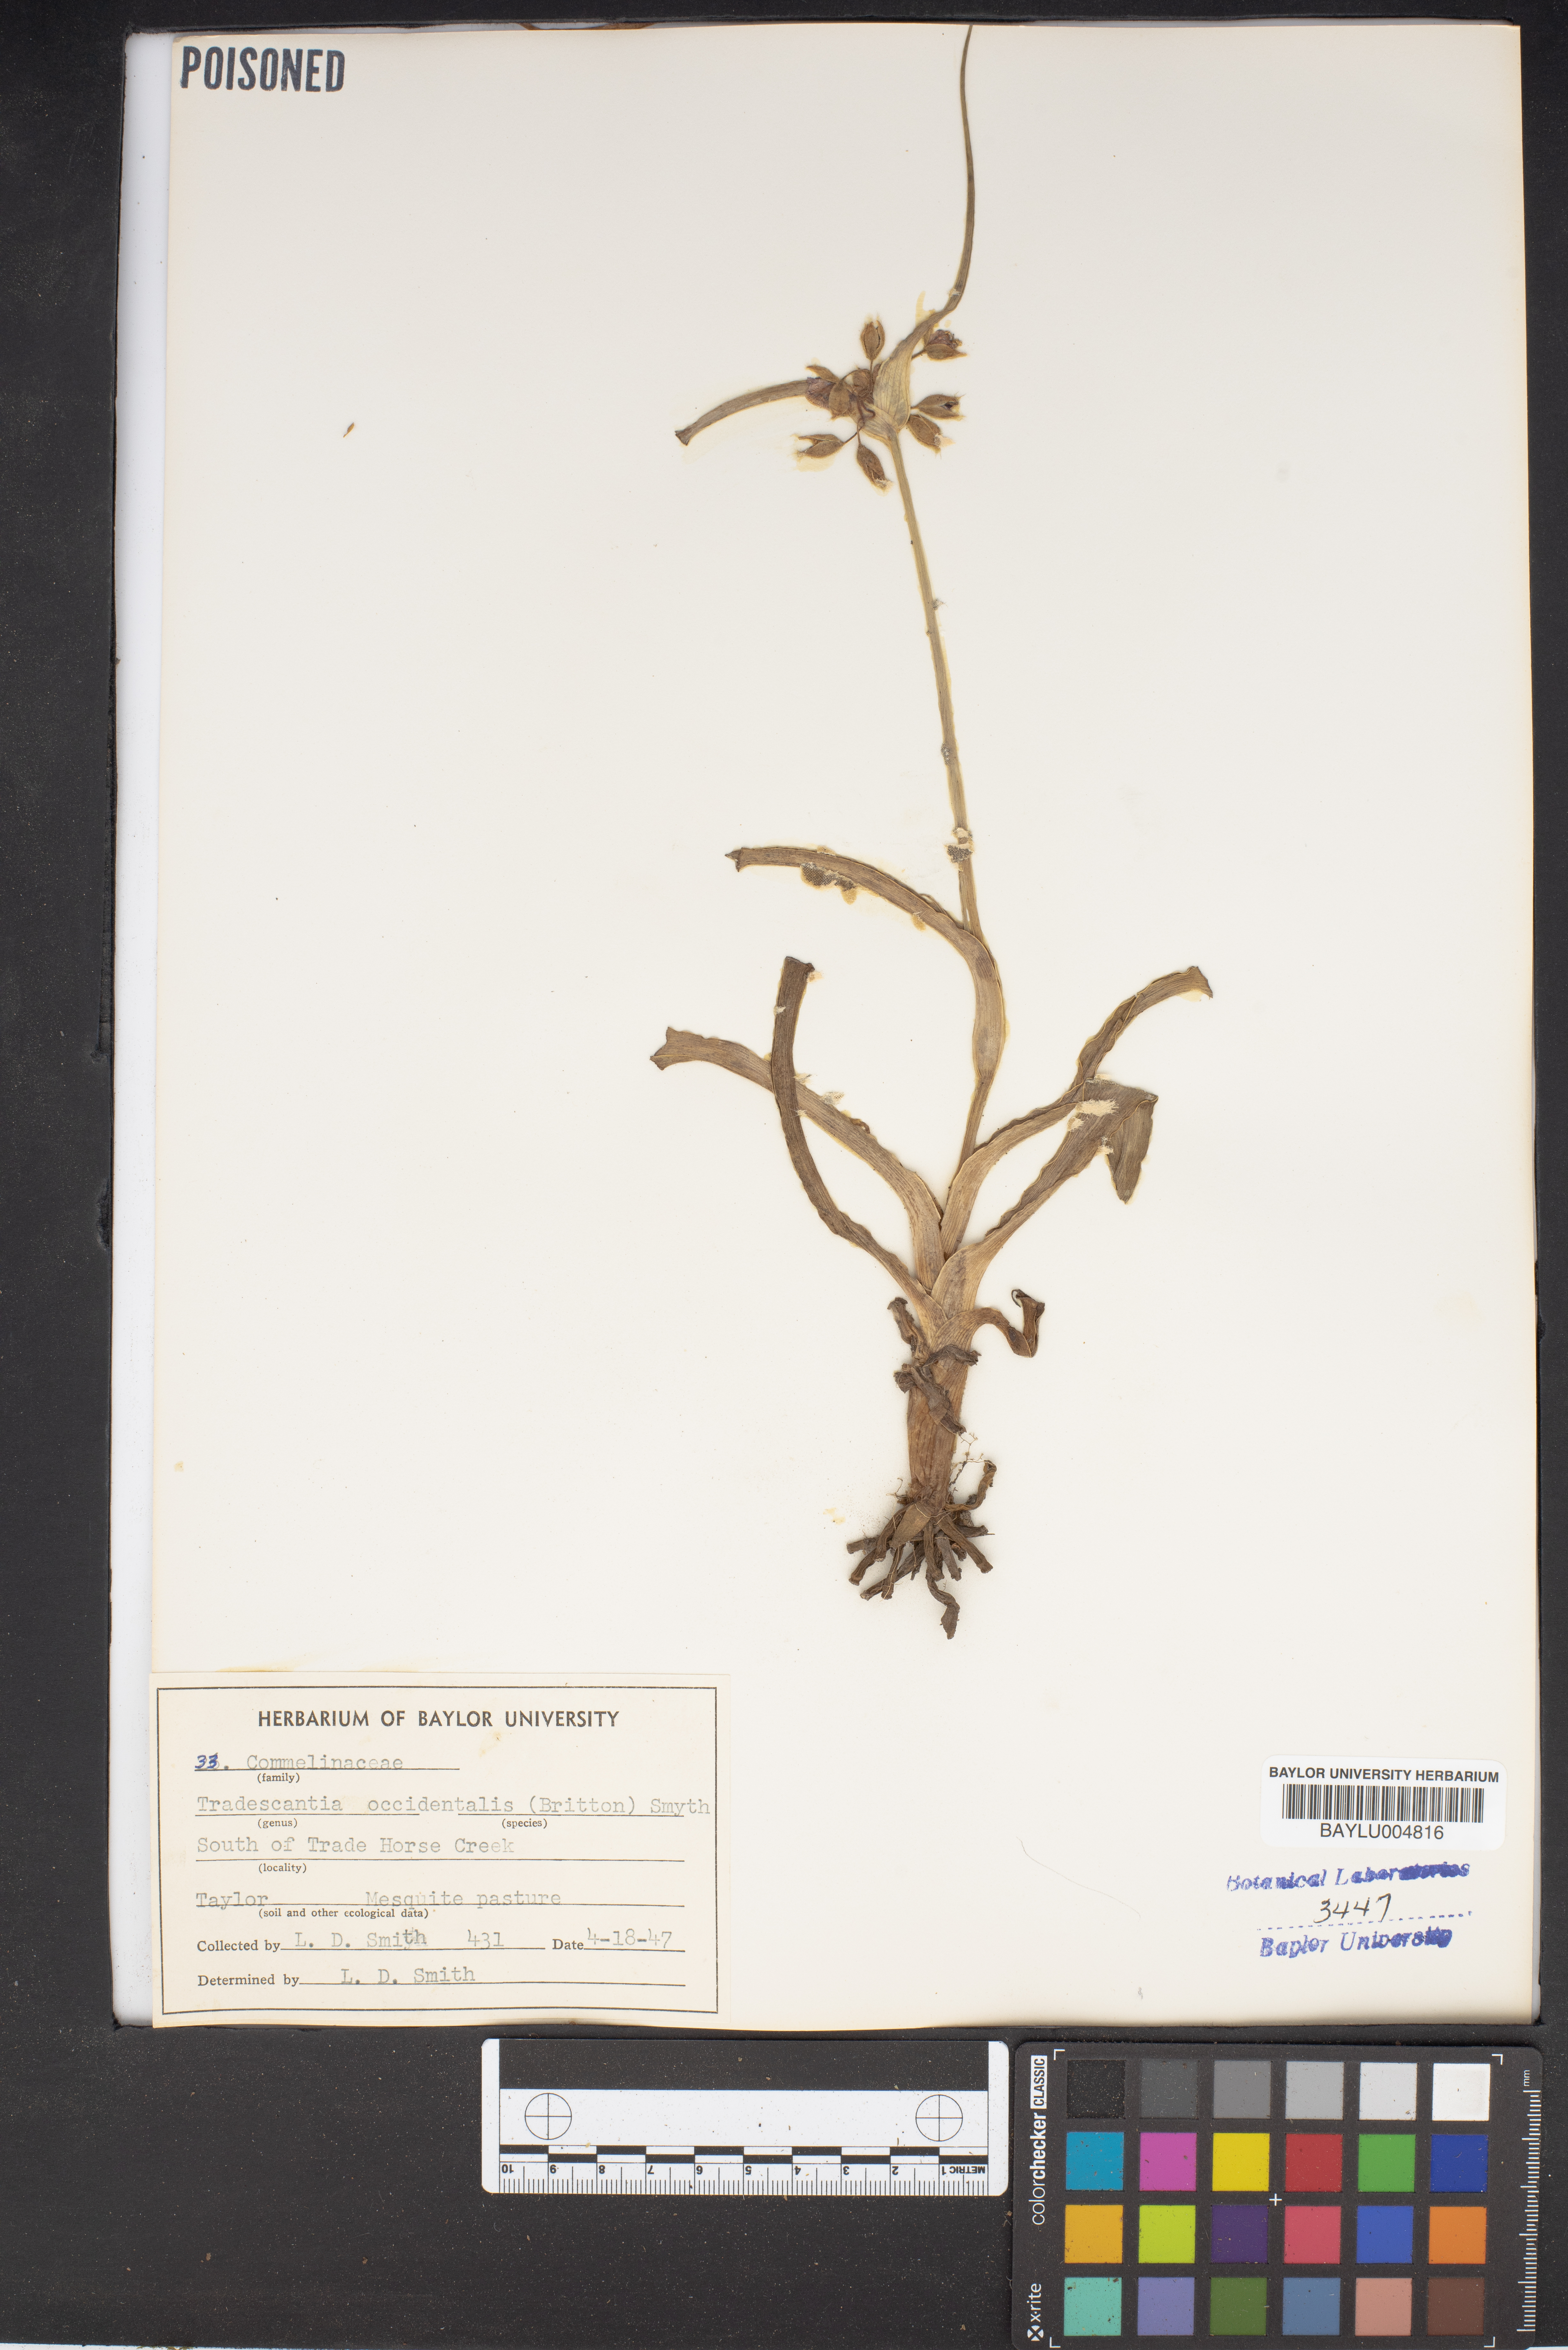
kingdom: Plantae
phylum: Tracheophyta
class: Liliopsida
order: Commelinales
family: Commelinaceae
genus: Tradescantia
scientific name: Tradescantia occidentalis
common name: Prairie spiderwort
